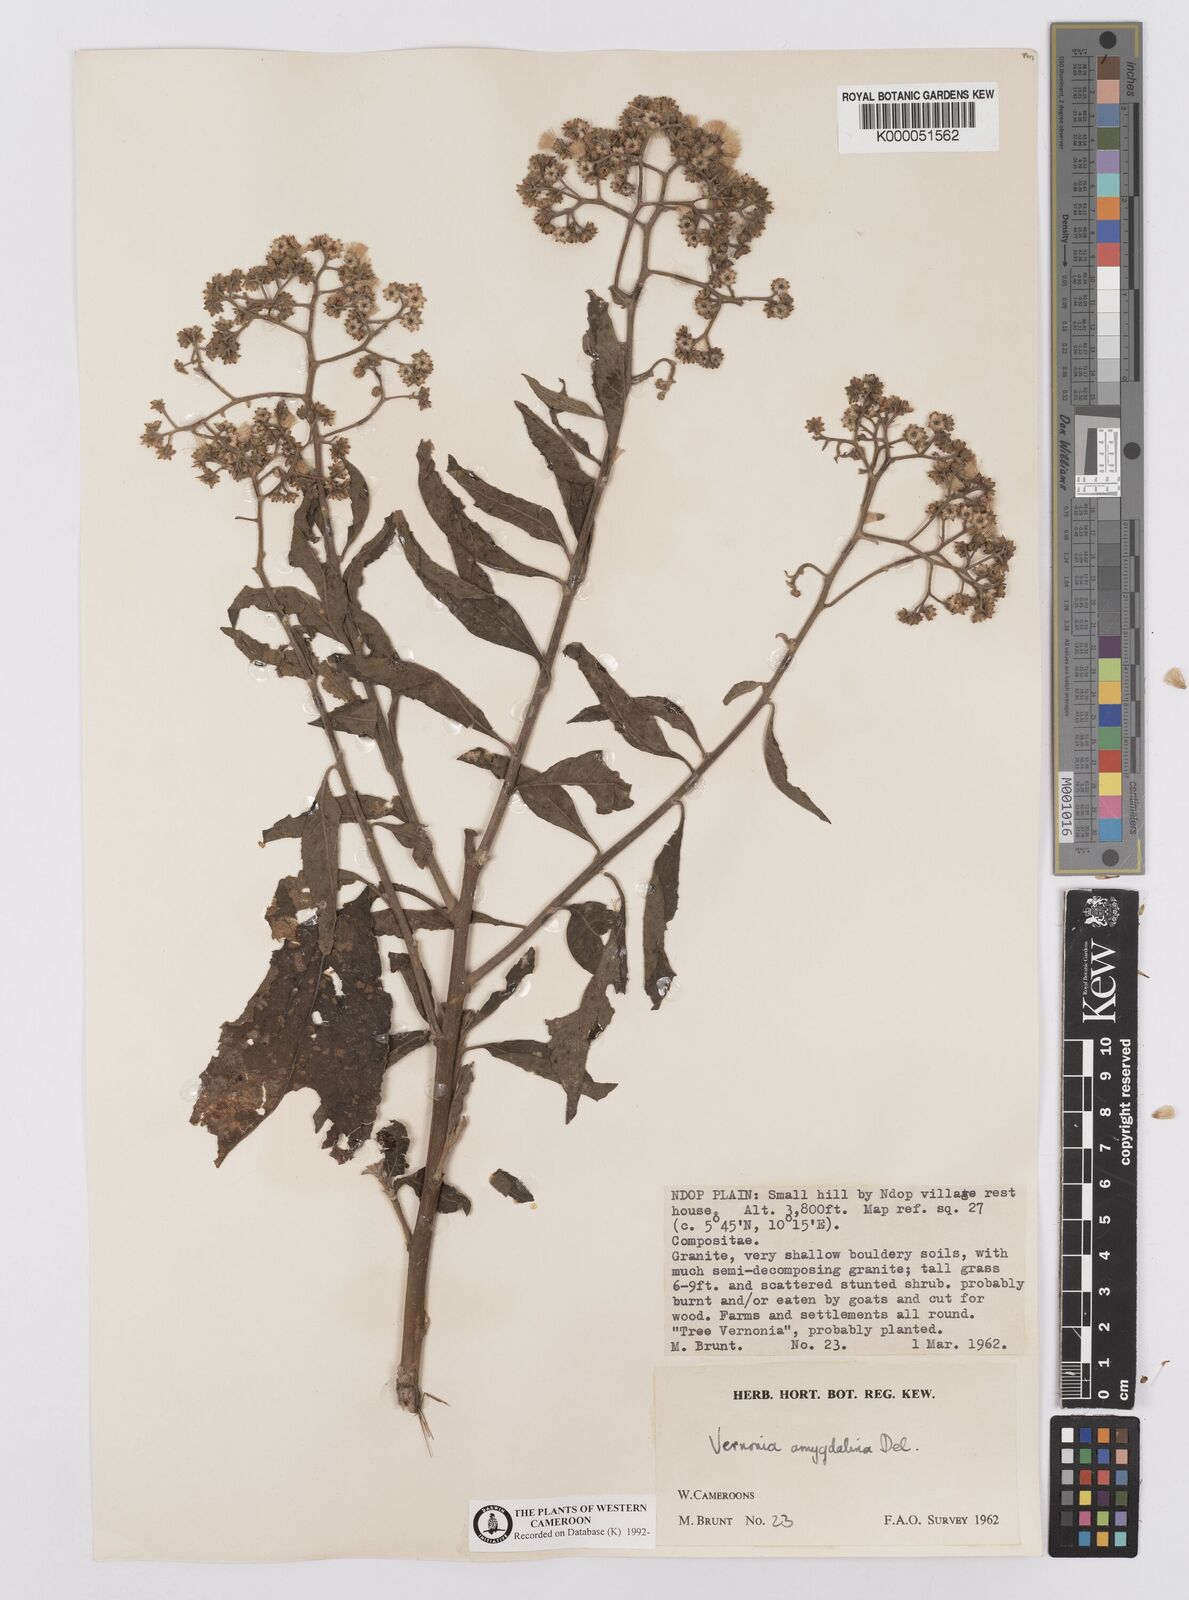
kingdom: Plantae
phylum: Tracheophyta
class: Magnoliopsida
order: Asterales
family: Asteraceae
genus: Gymnanthemum
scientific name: Gymnanthemum amygdalinum
